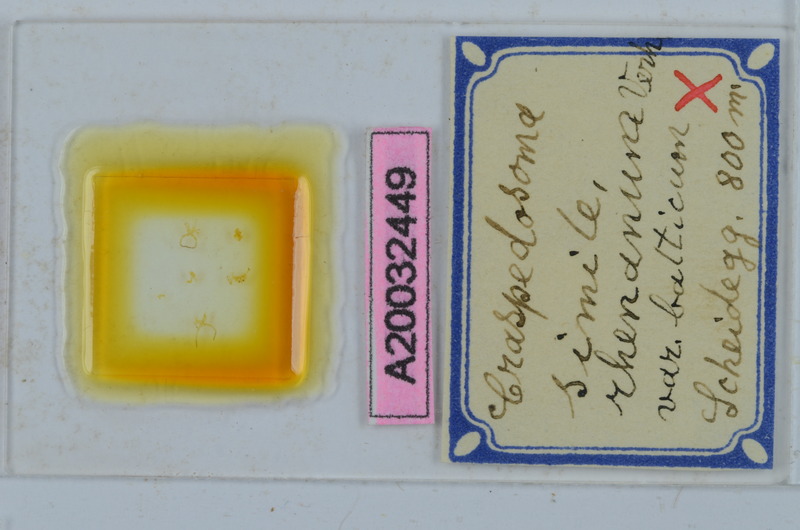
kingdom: Animalia
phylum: Arthropoda
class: Diplopoda
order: Chordeumatida
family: Craspedosomatidae
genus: Craspedosoma
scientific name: Craspedosoma rawlinsii
